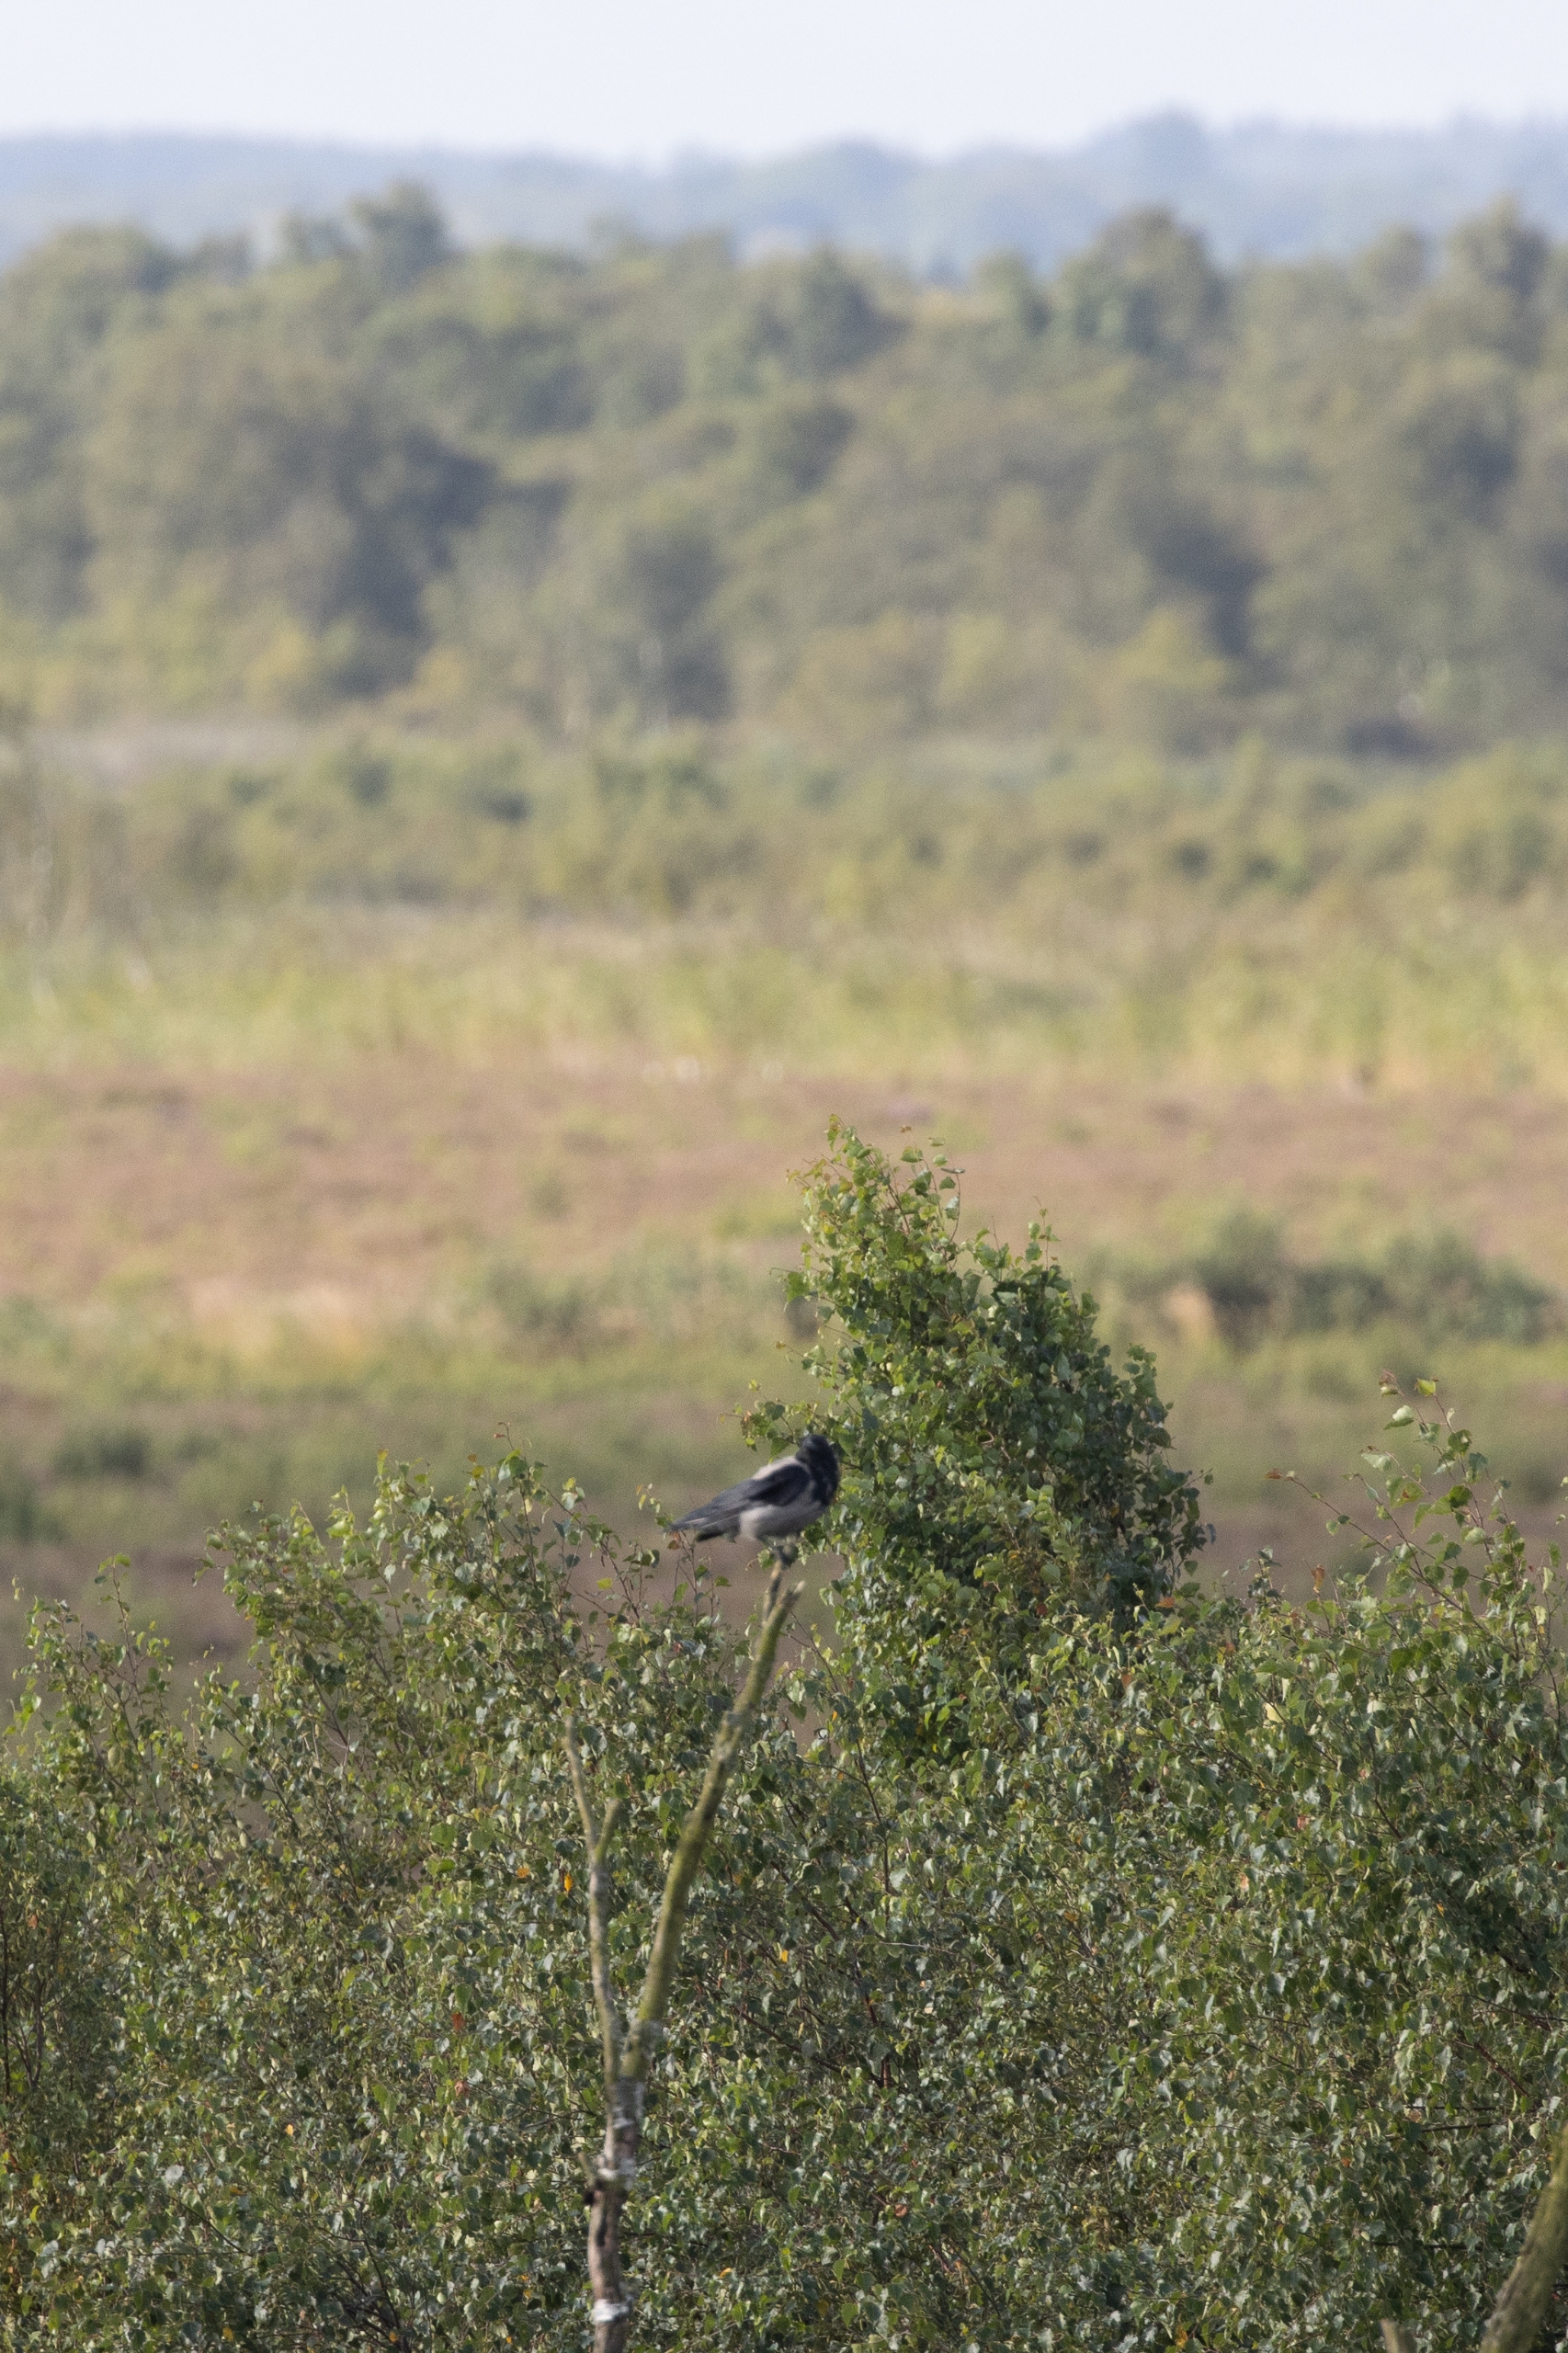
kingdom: Animalia
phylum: Chordata
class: Aves
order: Passeriformes
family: Corvidae
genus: Corvus
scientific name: Corvus cornix
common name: Gråkrage
